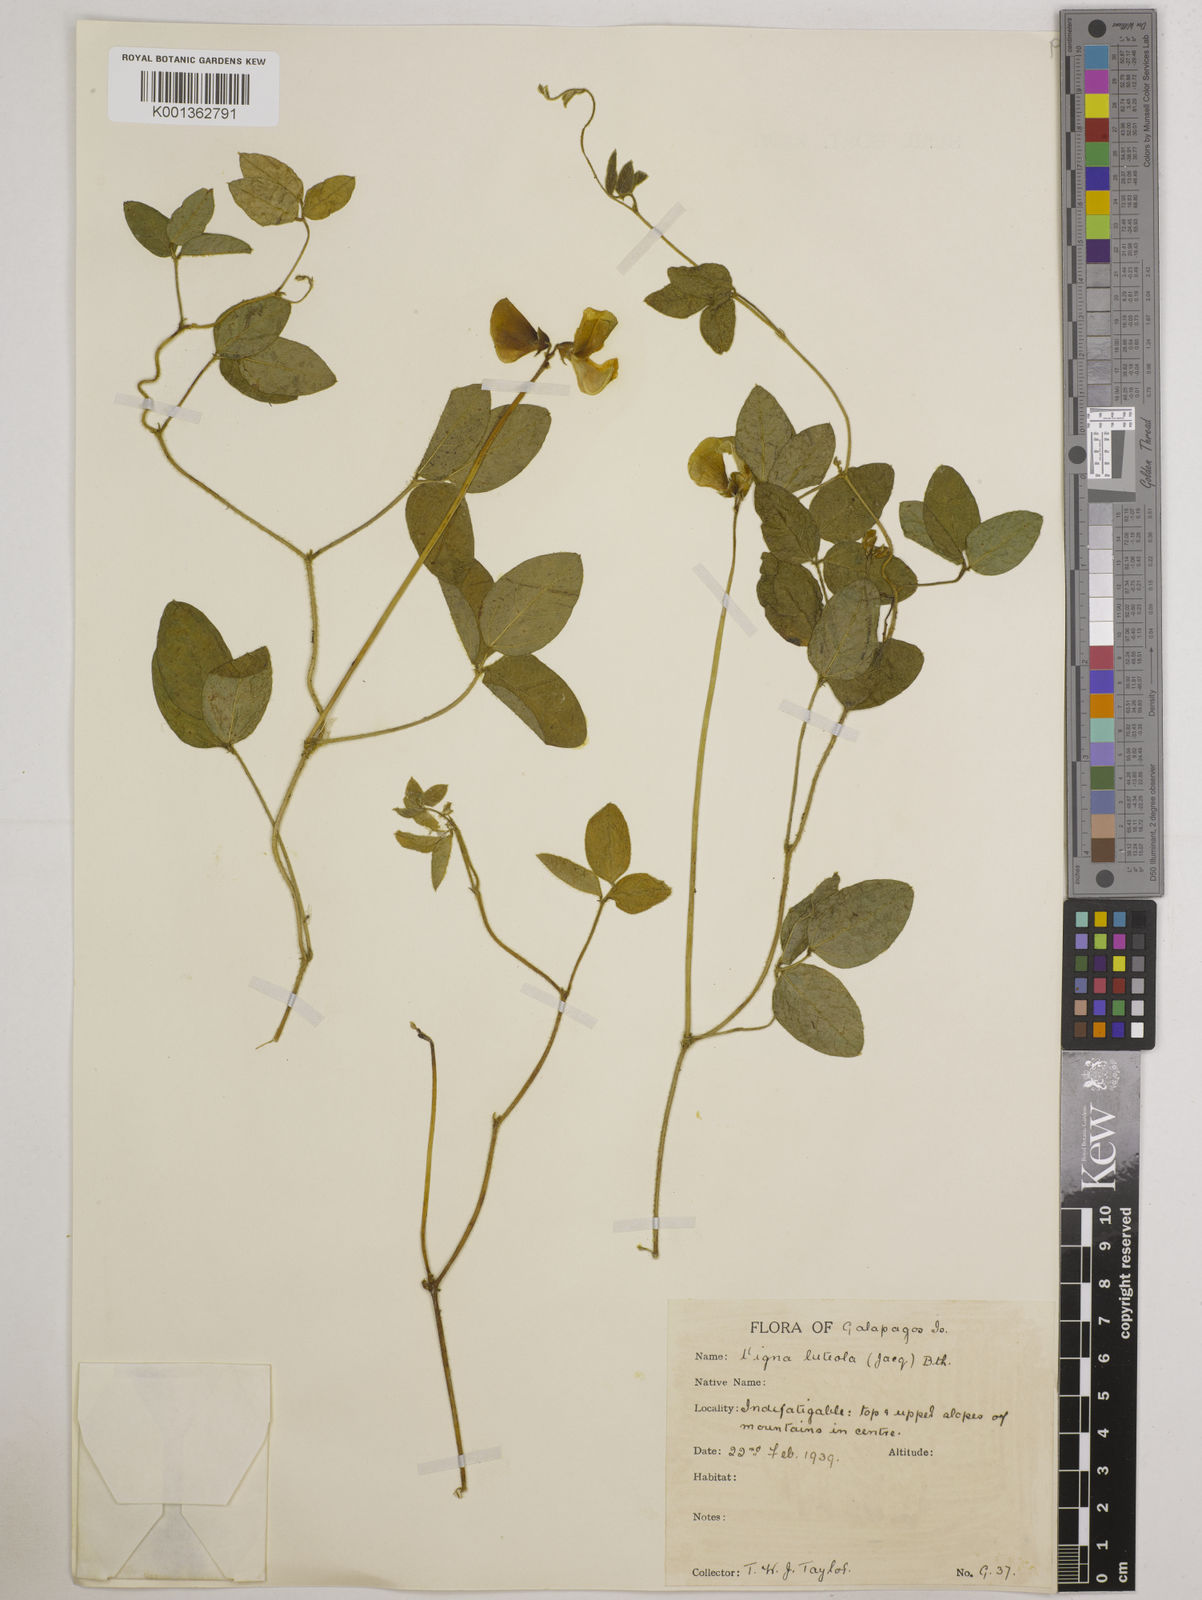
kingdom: Plantae
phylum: Tracheophyta
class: Magnoliopsida
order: Fabales
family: Fabaceae
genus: Vigna
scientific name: Vigna luteola
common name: Hairypod cowpea
